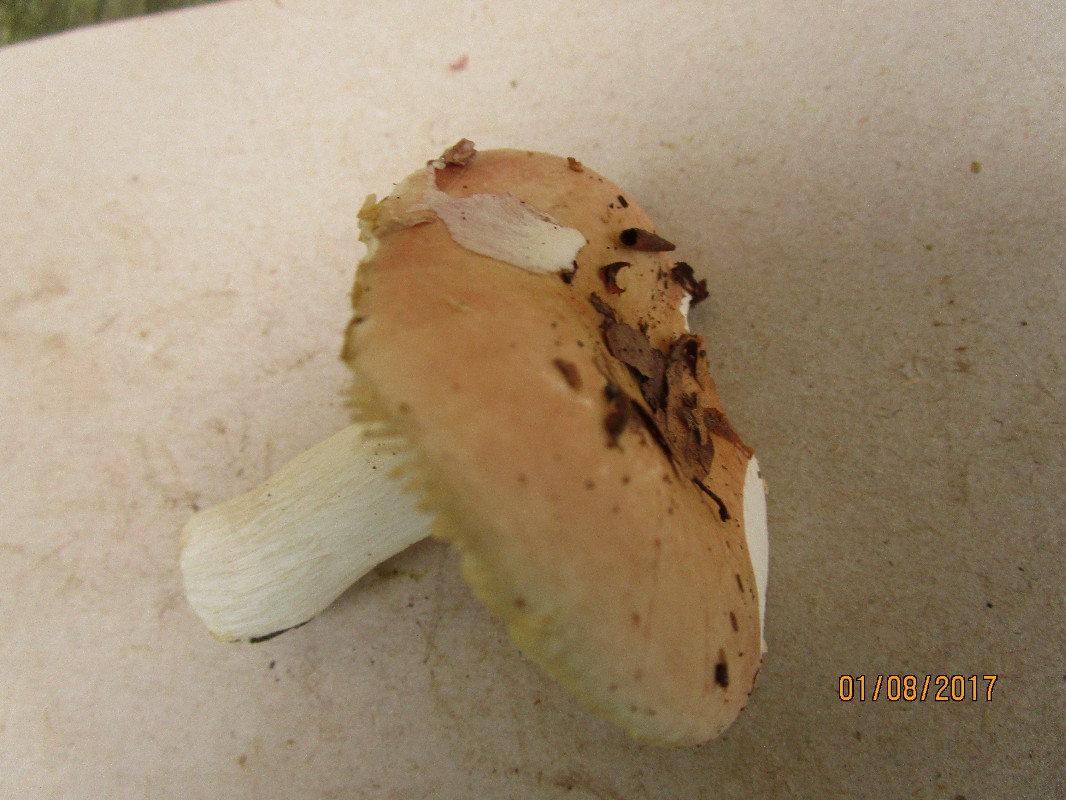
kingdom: Fungi
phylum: Basidiomycota
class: Agaricomycetes
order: Russulales
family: Russulaceae
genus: Russula
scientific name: Russula veternosa
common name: blødkødet skørhat
